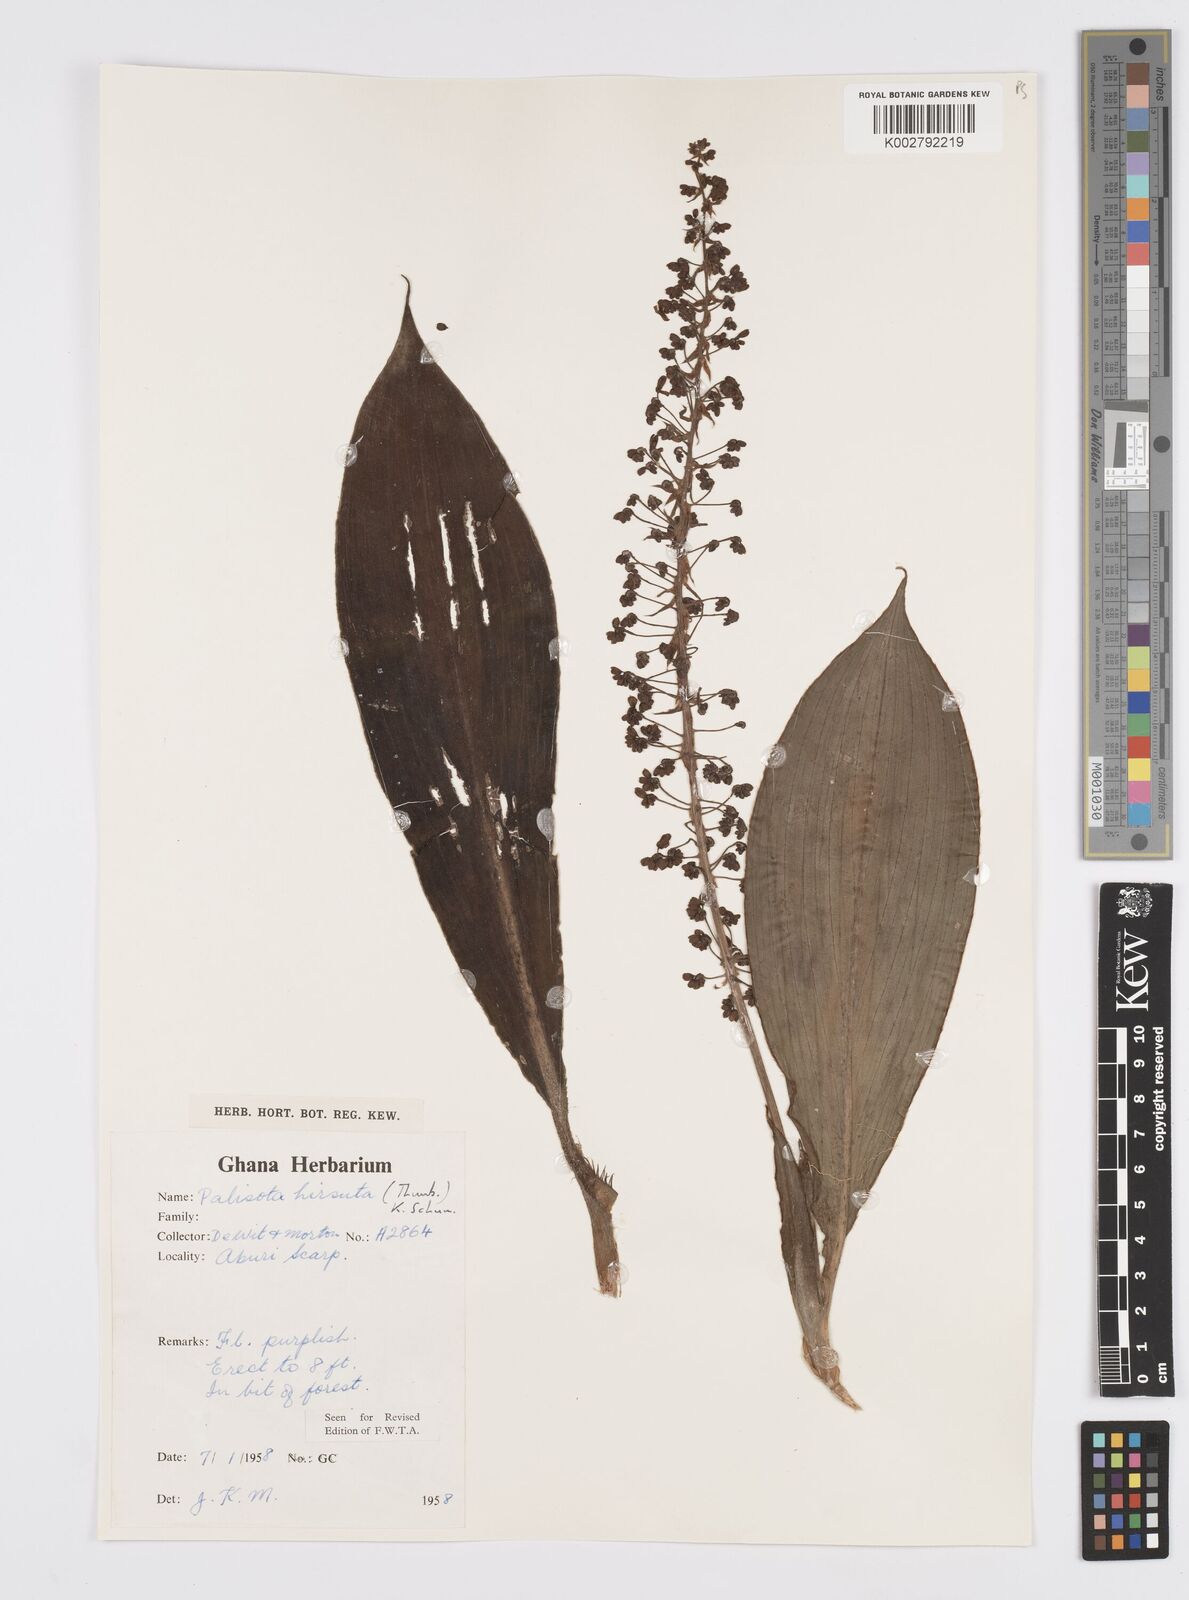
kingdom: Plantae
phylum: Tracheophyta
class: Liliopsida
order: Commelinales
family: Commelinaceae
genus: Palisota
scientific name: Palisota hirsuta
